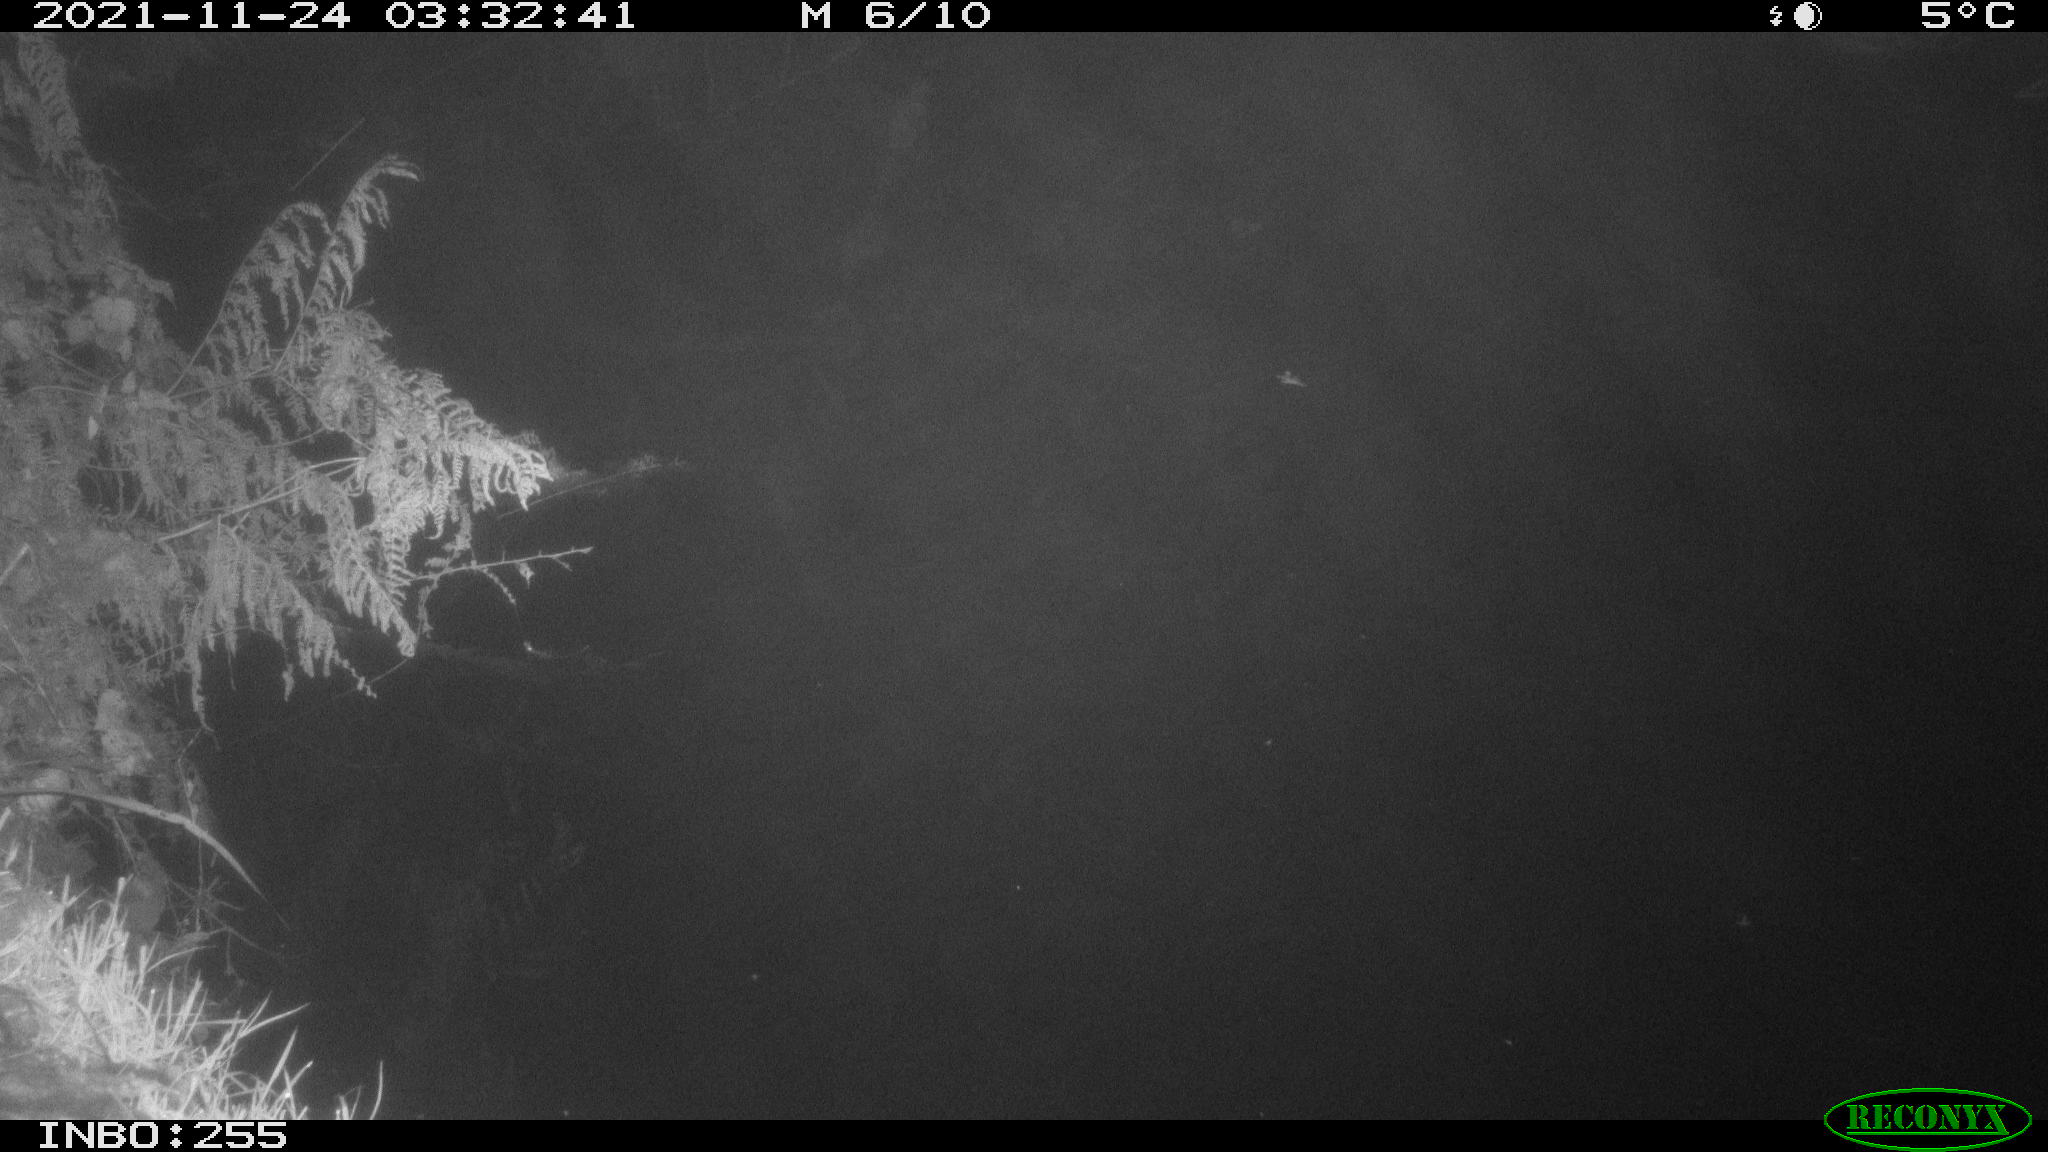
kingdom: Animalia
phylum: Chordata
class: Aves
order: Anseriformes
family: Anatidae
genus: Anas
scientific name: Anas platyrhynchos
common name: Mallard
